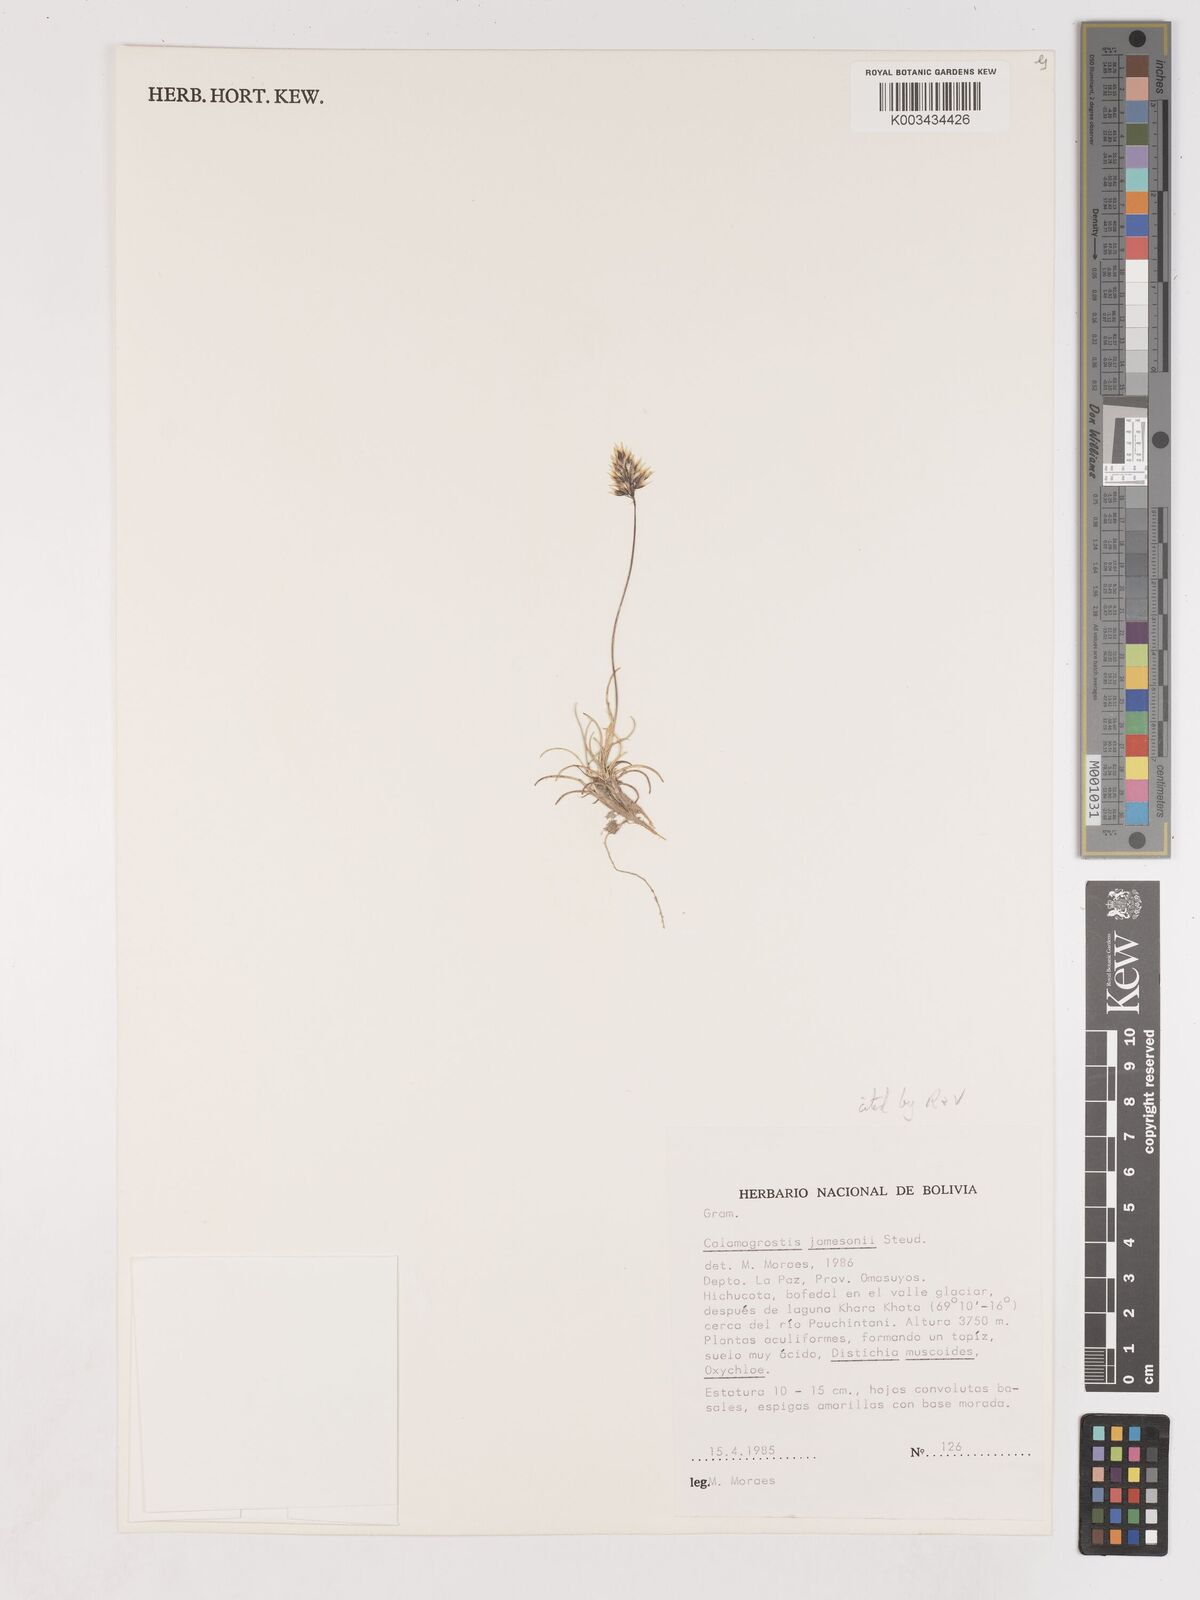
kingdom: Plantae
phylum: Tracheophyta
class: Liliopsida
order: Poales
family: Poaceae
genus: Cinnagrostis
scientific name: Cinnagrostis spicigera
